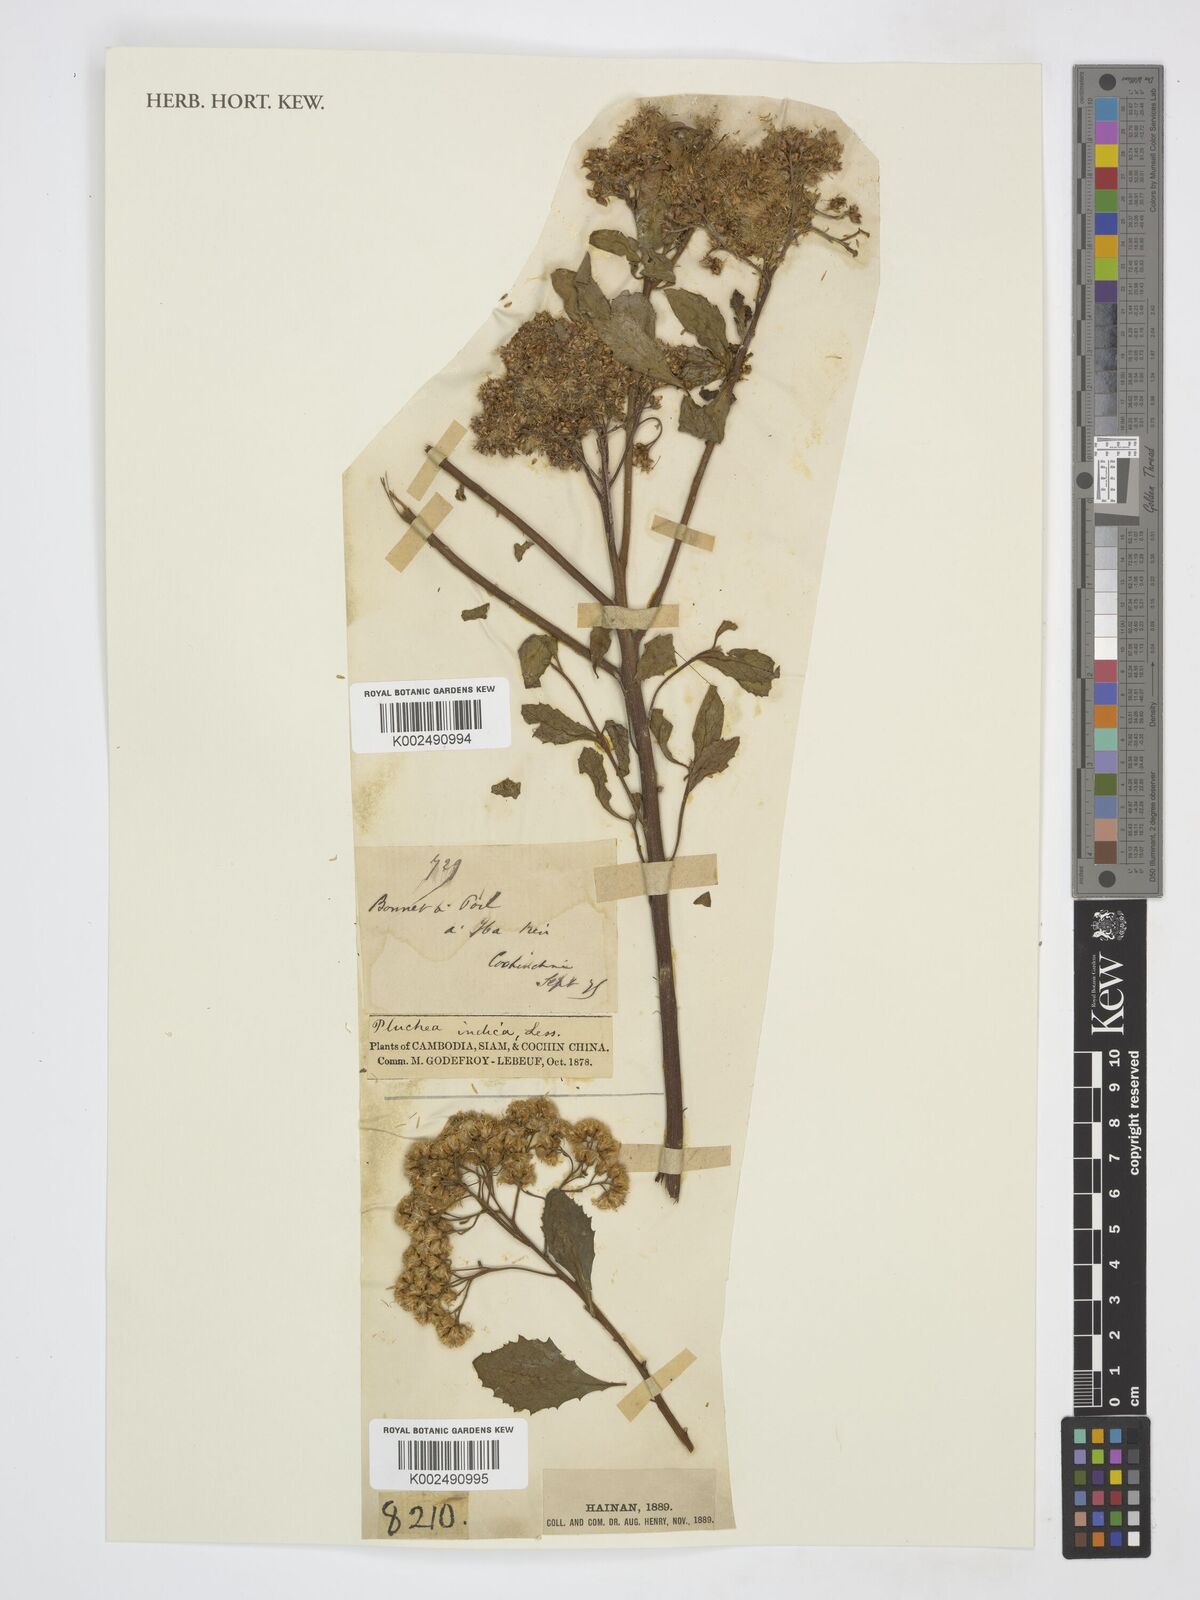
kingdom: Plantae
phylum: Tracheophyta
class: Magnoliopsida
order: Asterales
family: Asteraceae
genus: Pluchea
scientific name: Pluchea indica
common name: Indian fleabane
